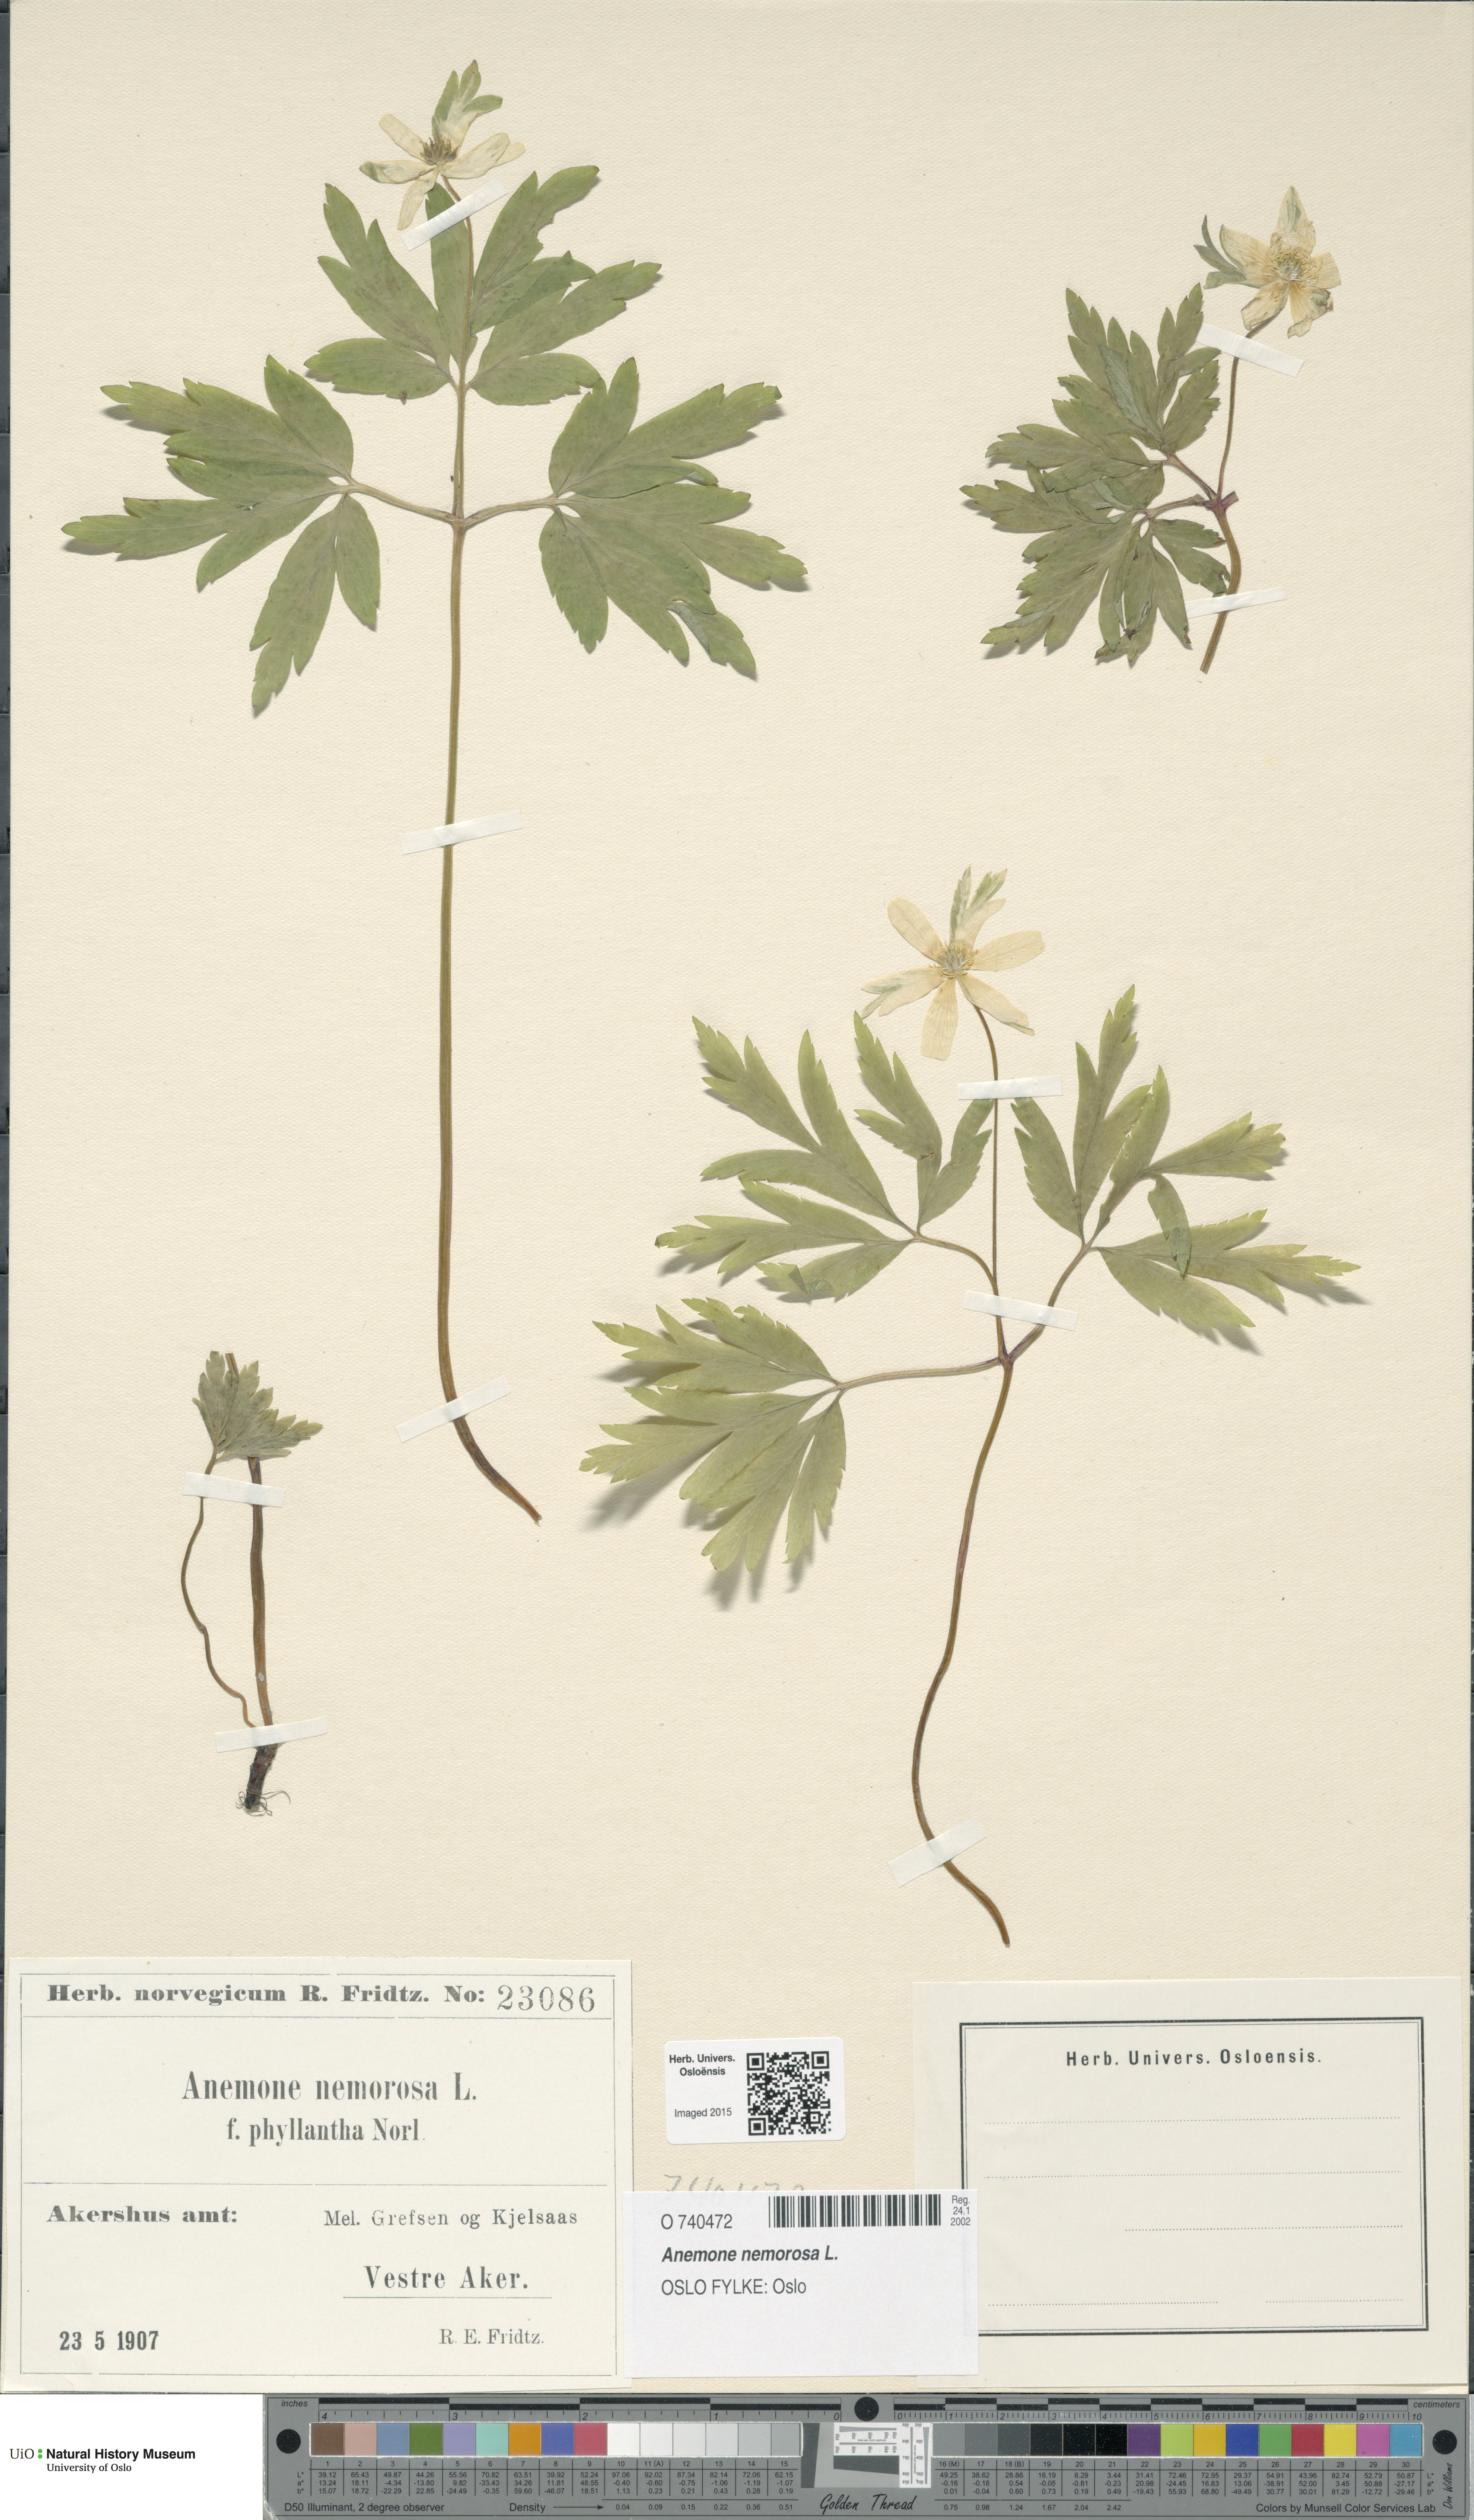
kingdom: Plantae
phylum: Tracheophyta
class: Magnoliopsida
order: Ranunculales
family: Ranunculaceae
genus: Anemone
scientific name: Anemone nemorosa
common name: Wood anemone
